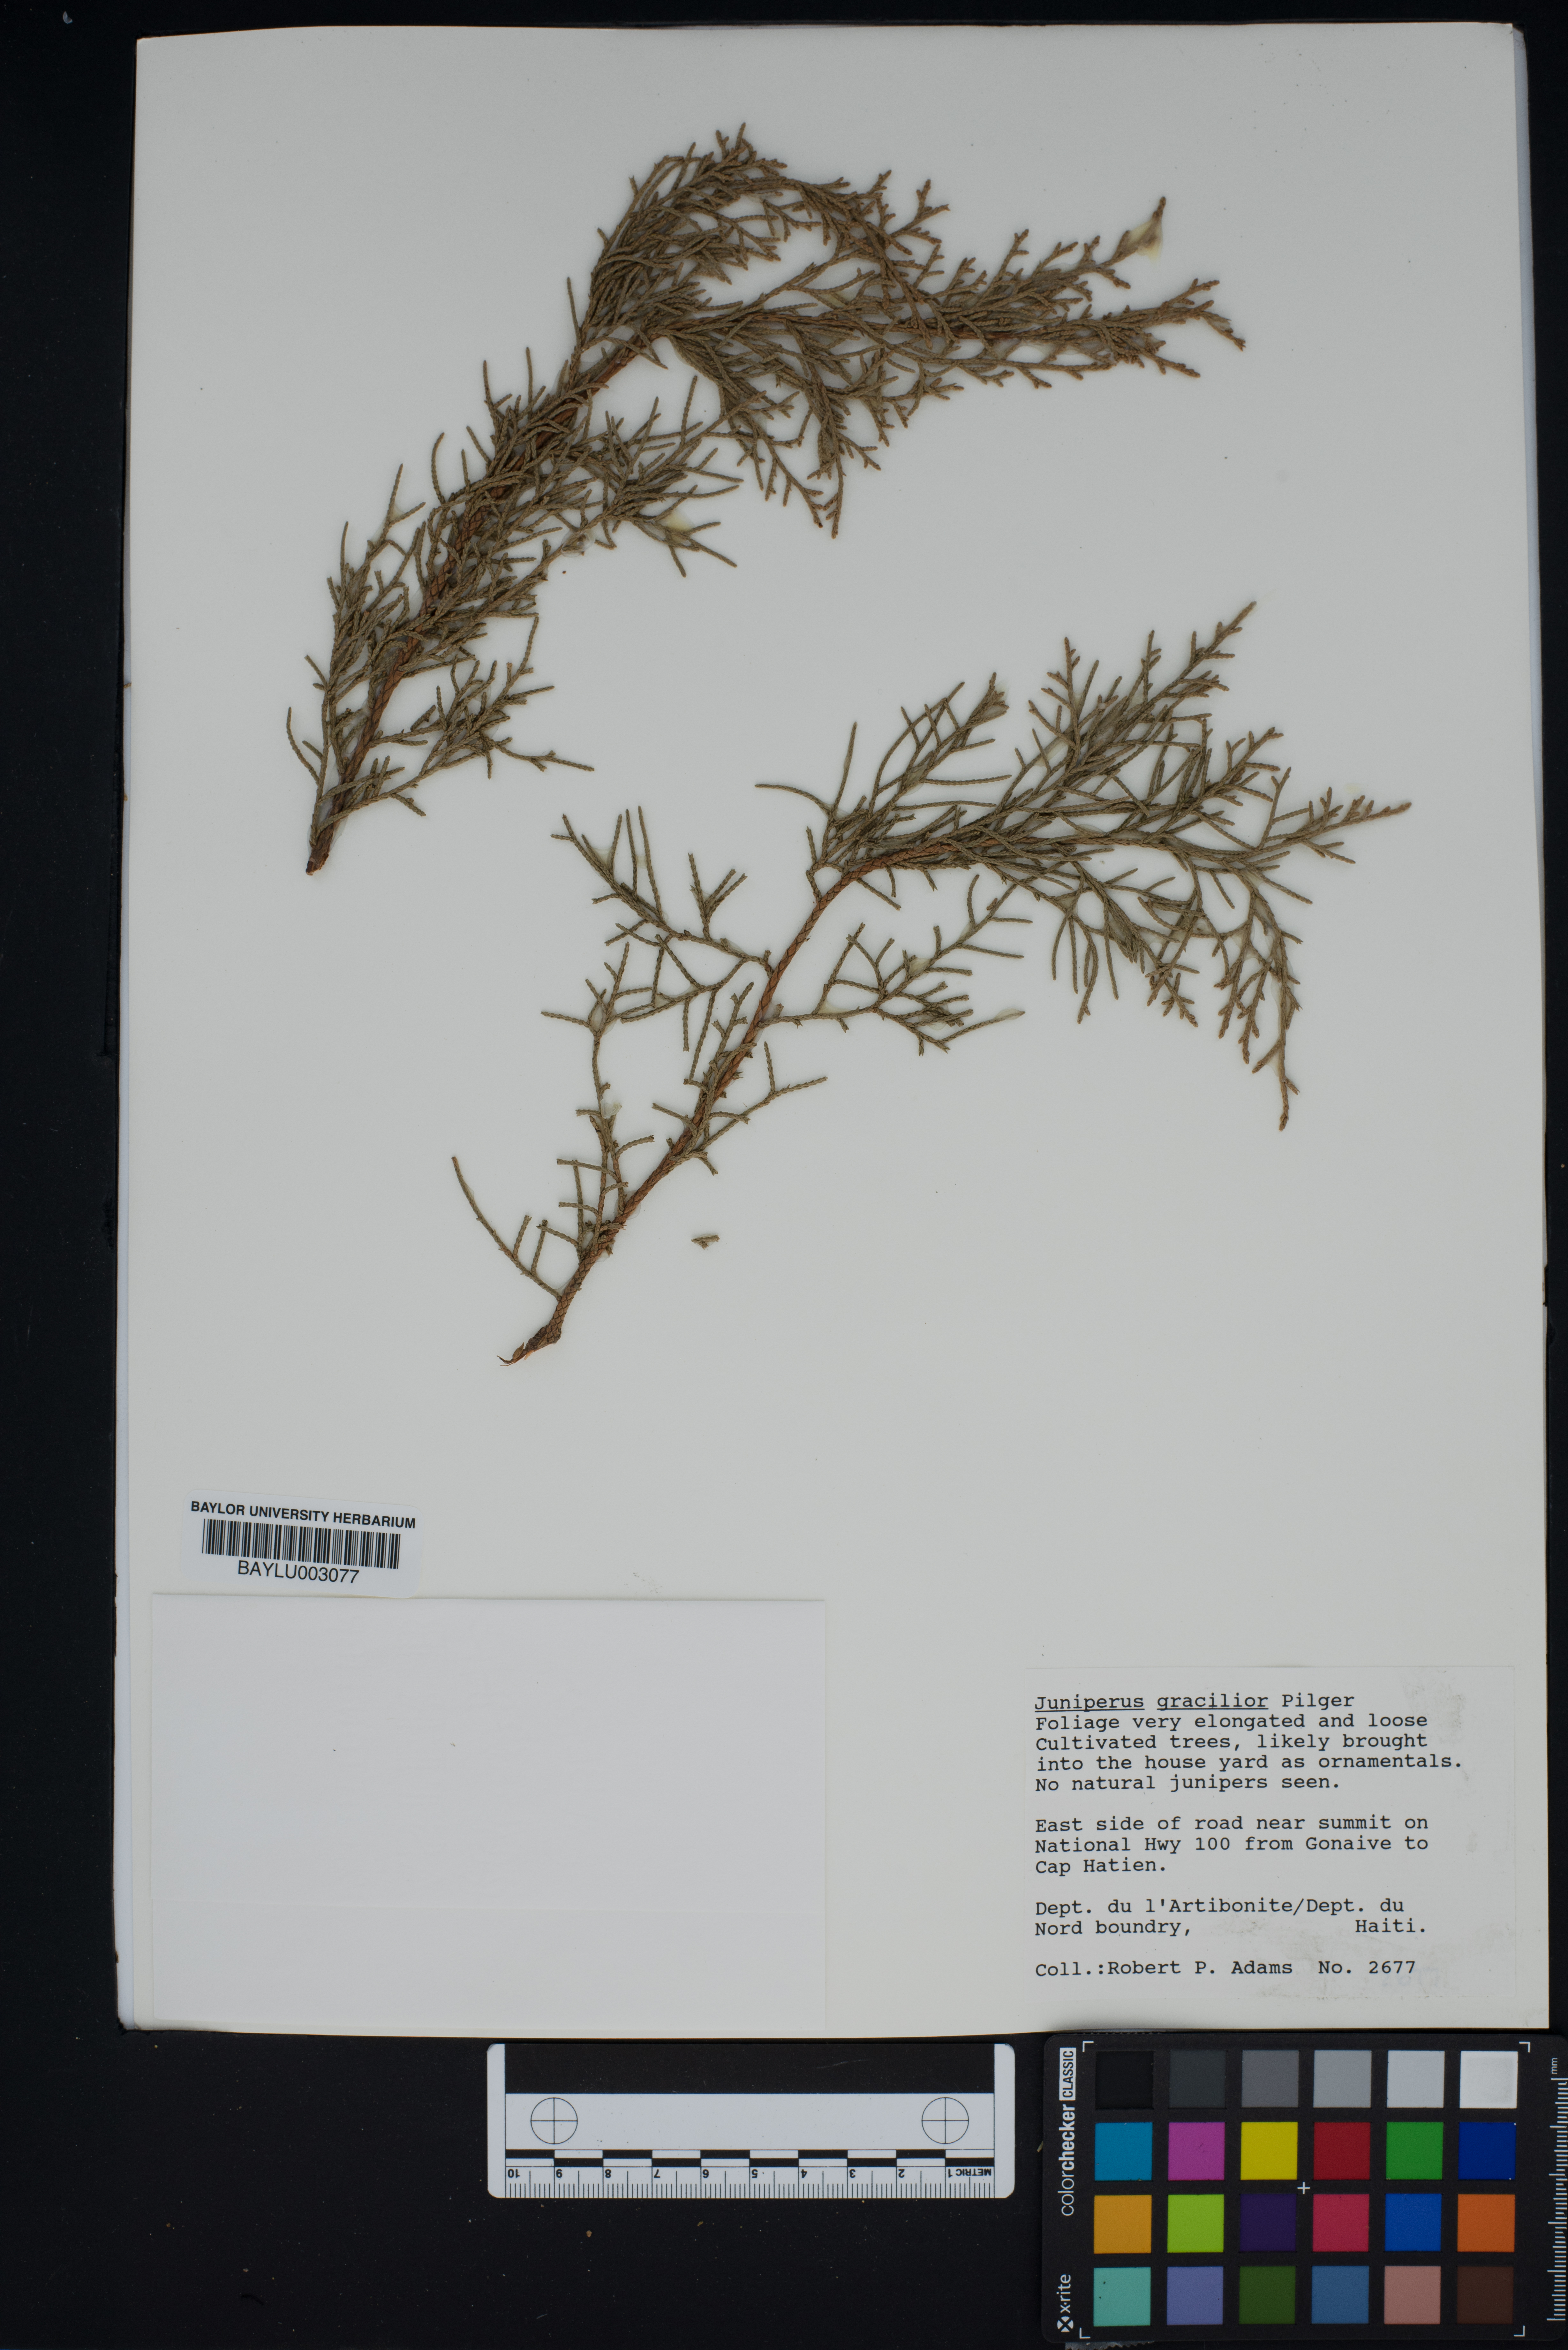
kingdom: Plantae
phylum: Tracheophyta
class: Pinopsida
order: Pinales
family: Cupressaceae
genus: Juniperus
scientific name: Juniperus gracilior
